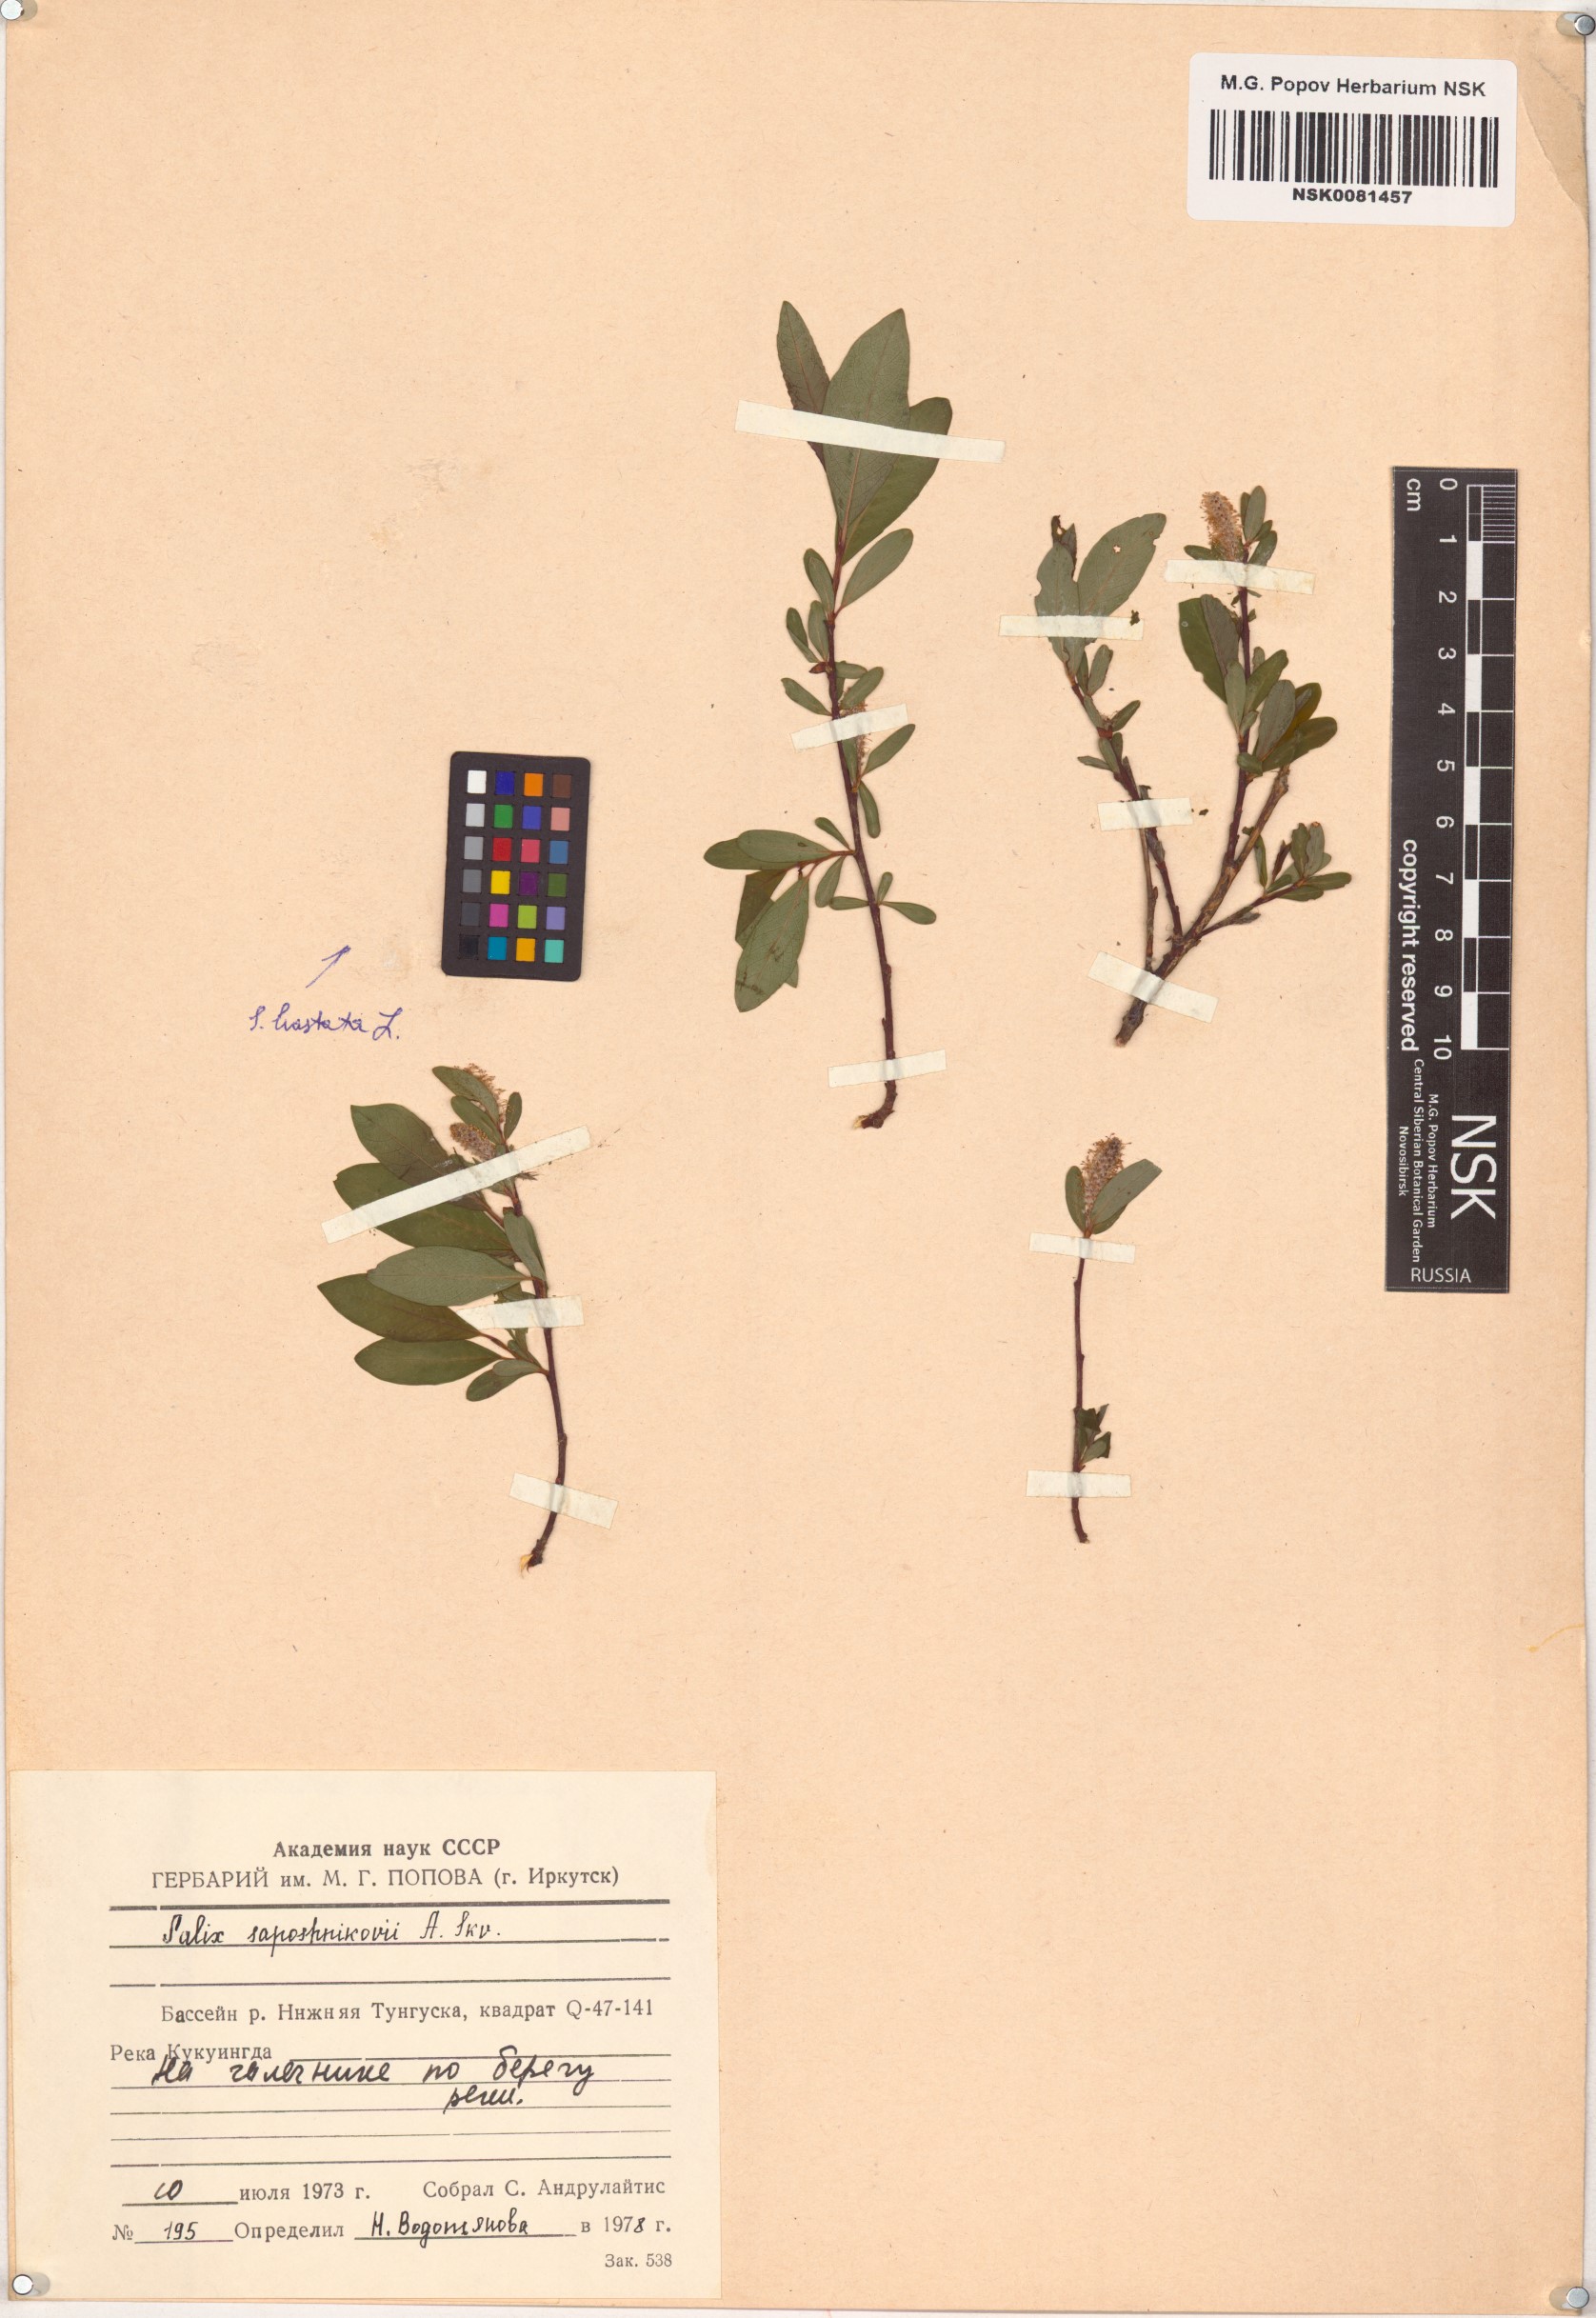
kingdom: Plantae
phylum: Tracheophyta
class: Magnoliopsida
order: Malpighiales
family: Salicaceae
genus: Salix
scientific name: Salix saposhnikovii
